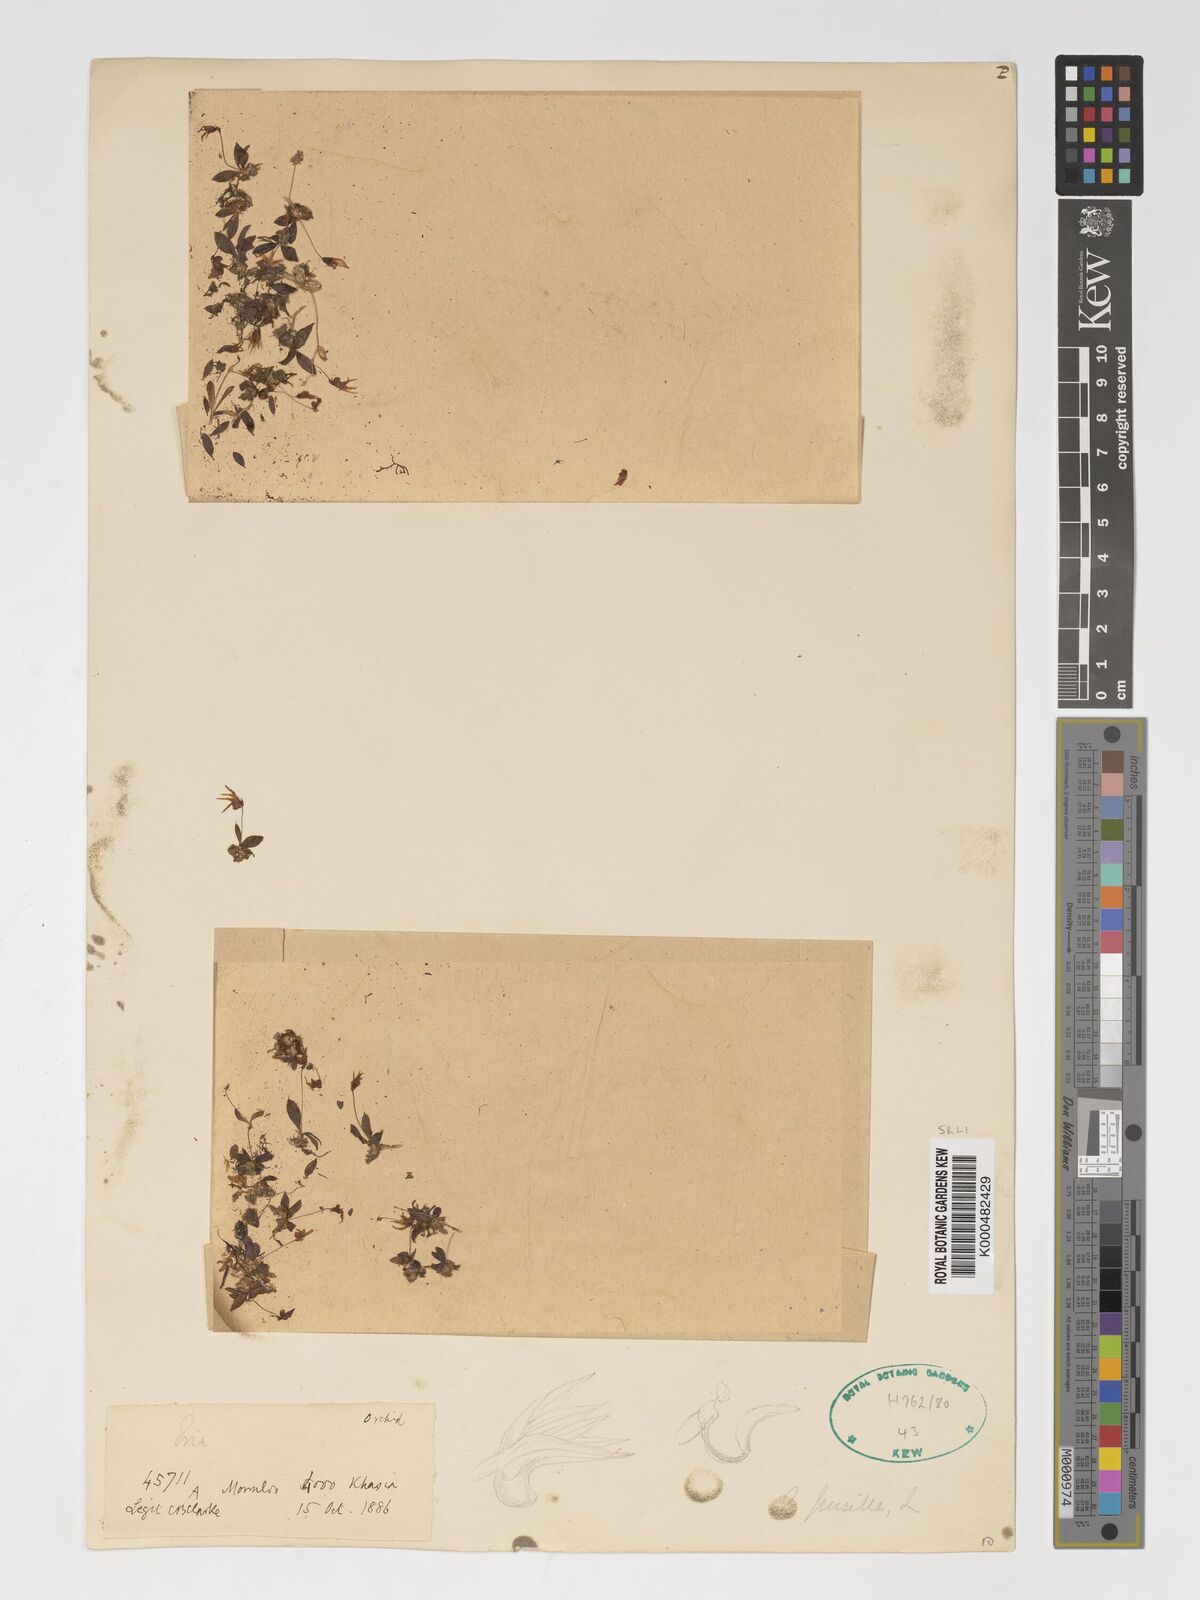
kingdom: Plantae
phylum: Tracheophyta
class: Liliopsida
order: Asparagales
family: Orchidaceae
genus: Porpax
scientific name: Porpax pusilla
